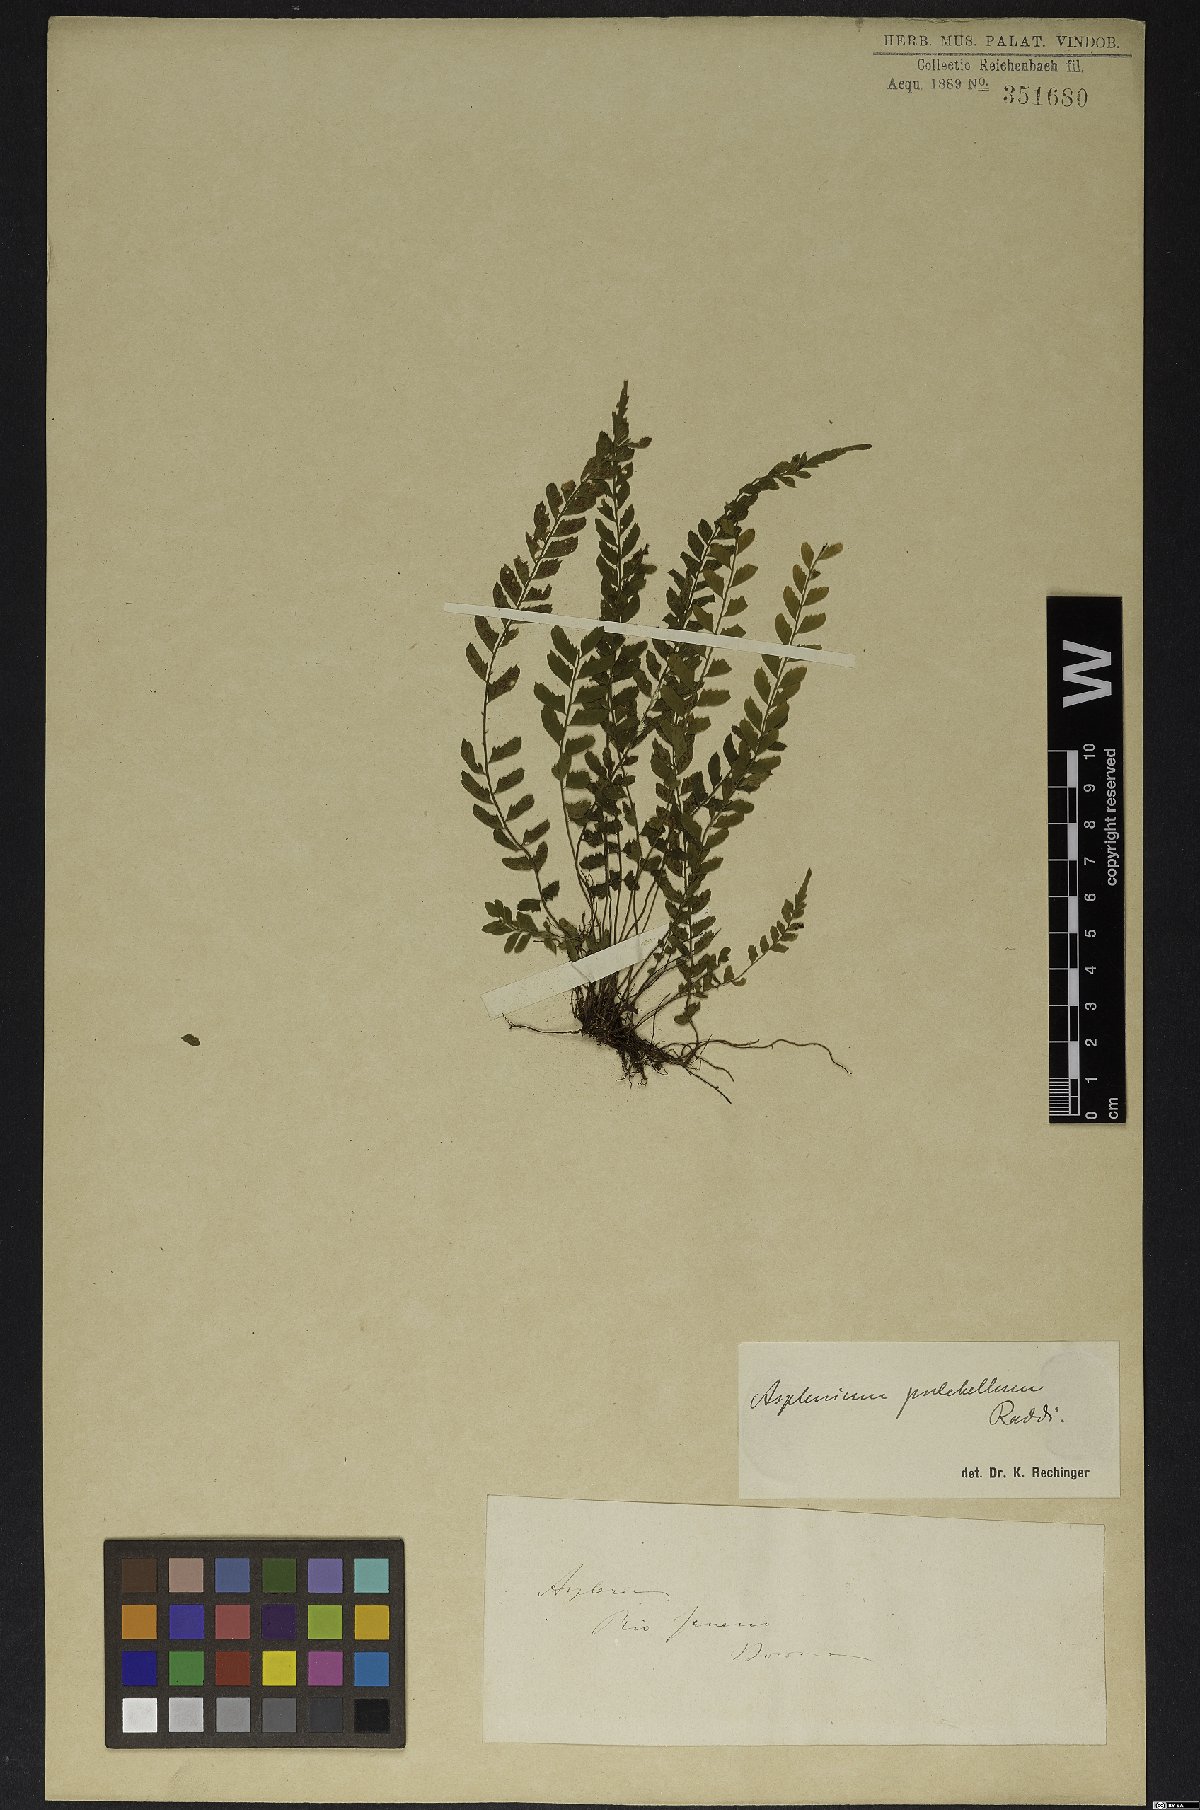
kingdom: Plantae
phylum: Tracheophyta
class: Polypodiopsida
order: Polypodiales
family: Aspleniaceae
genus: Asplenium
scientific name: Asplenium pulchellum
